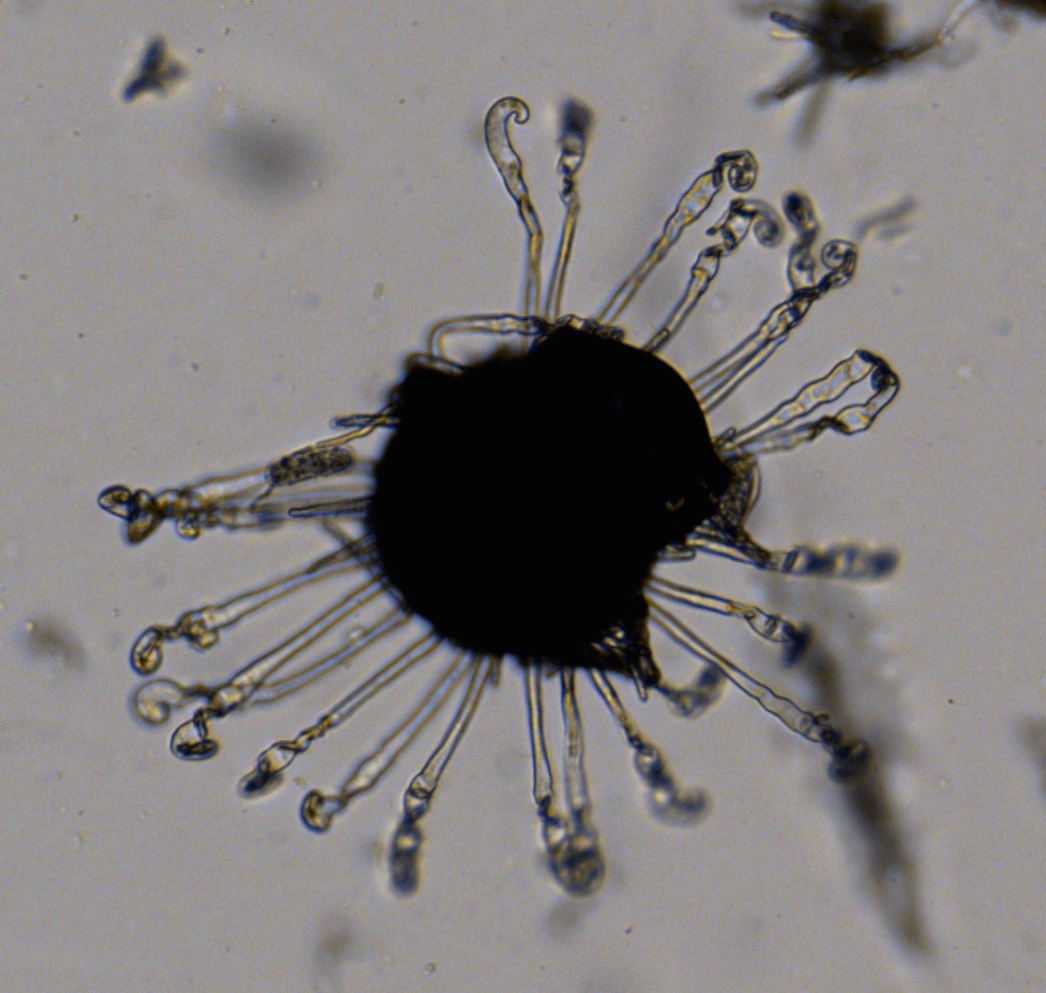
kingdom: Fungi
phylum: Ascomycota
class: Leotiomycetes
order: Helotiales
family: Erysiphaceae
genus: Erysiphe
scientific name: Erysiphe flexuosa
